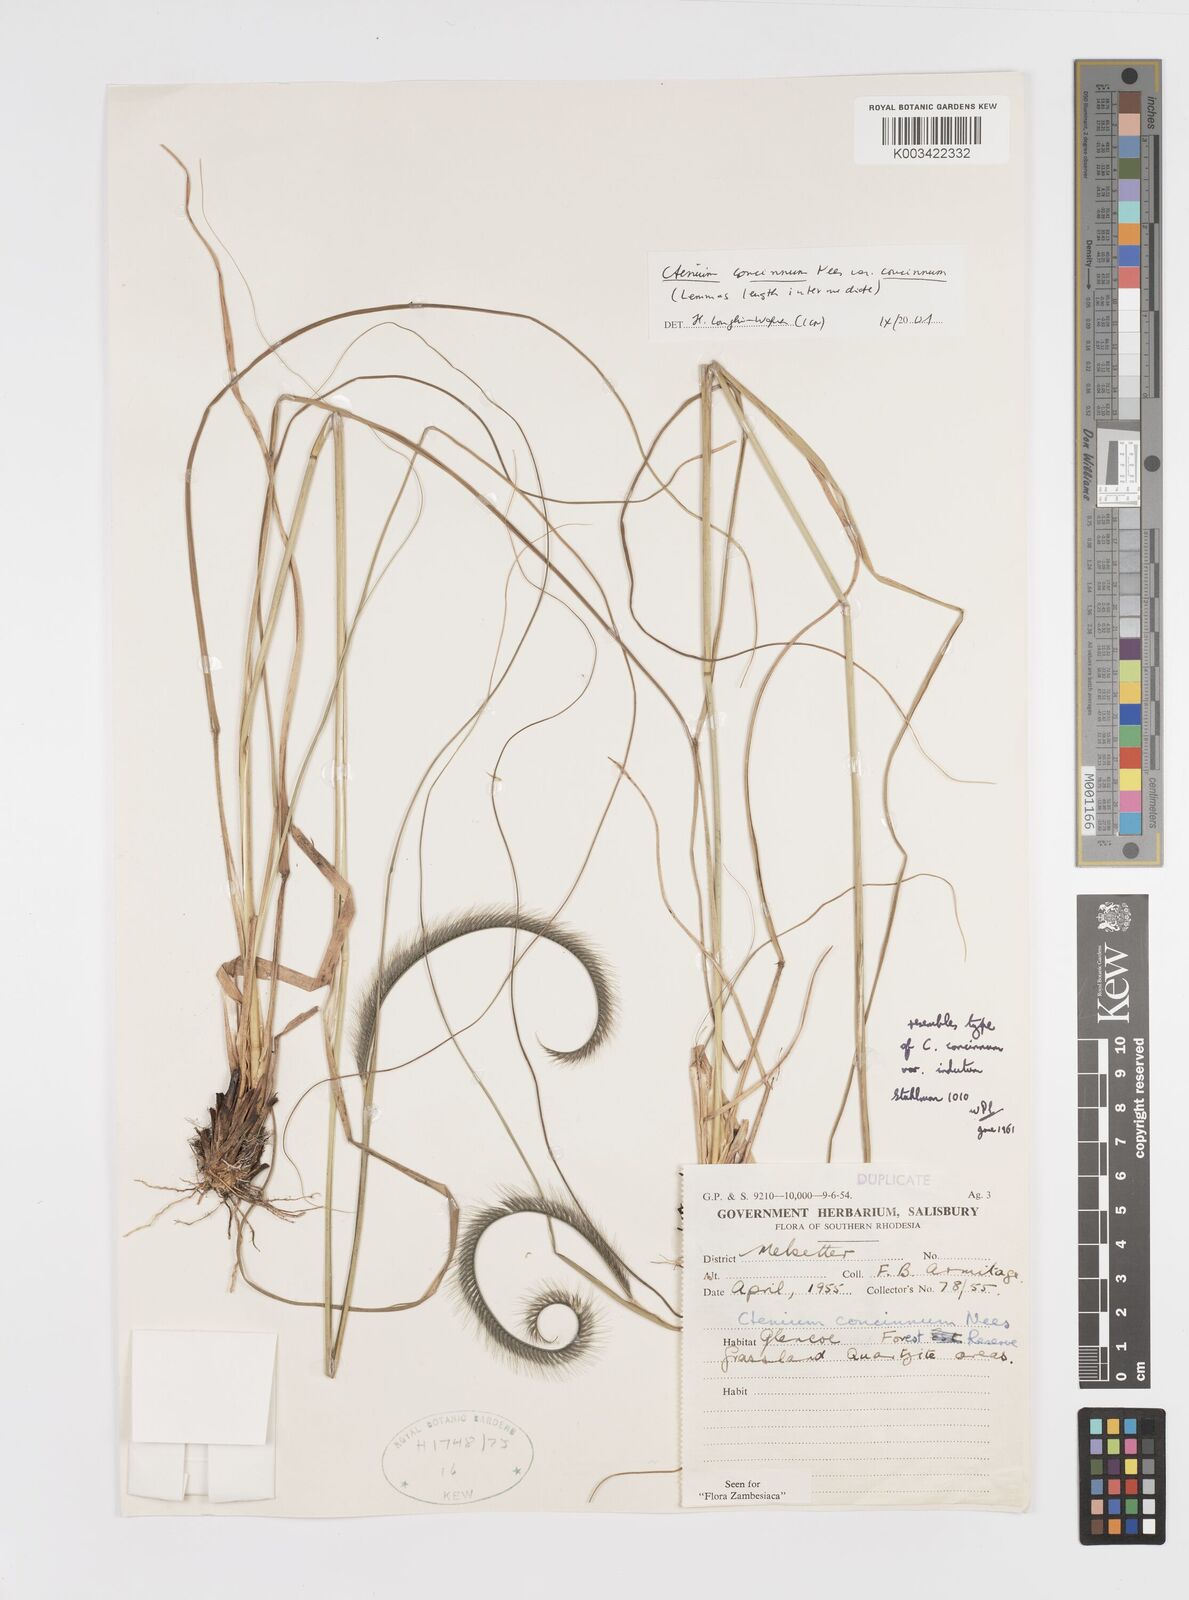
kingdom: Plantae
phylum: Tracheophyta
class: Liliopsida
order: Poales
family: Poaceae
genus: Ctenium
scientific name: Ctenium concinnum
